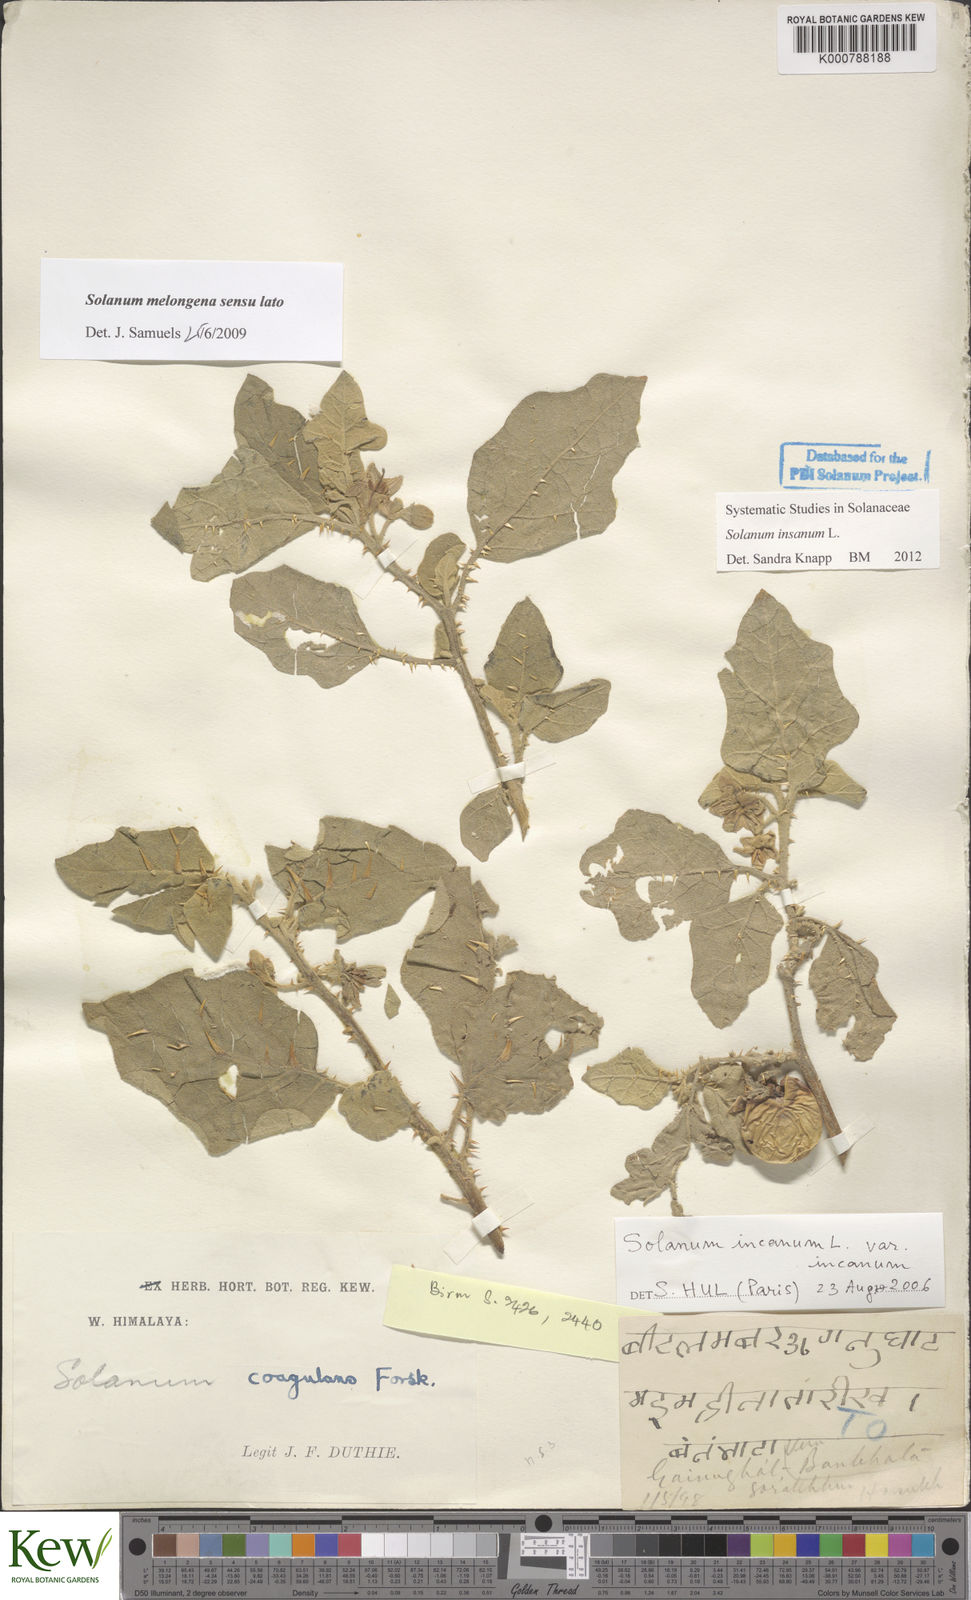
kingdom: Plantae
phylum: Tracheophyta
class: Magnoliopsida
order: Solanales
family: Solanaceae
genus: Solanum
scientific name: Solanum insanum
